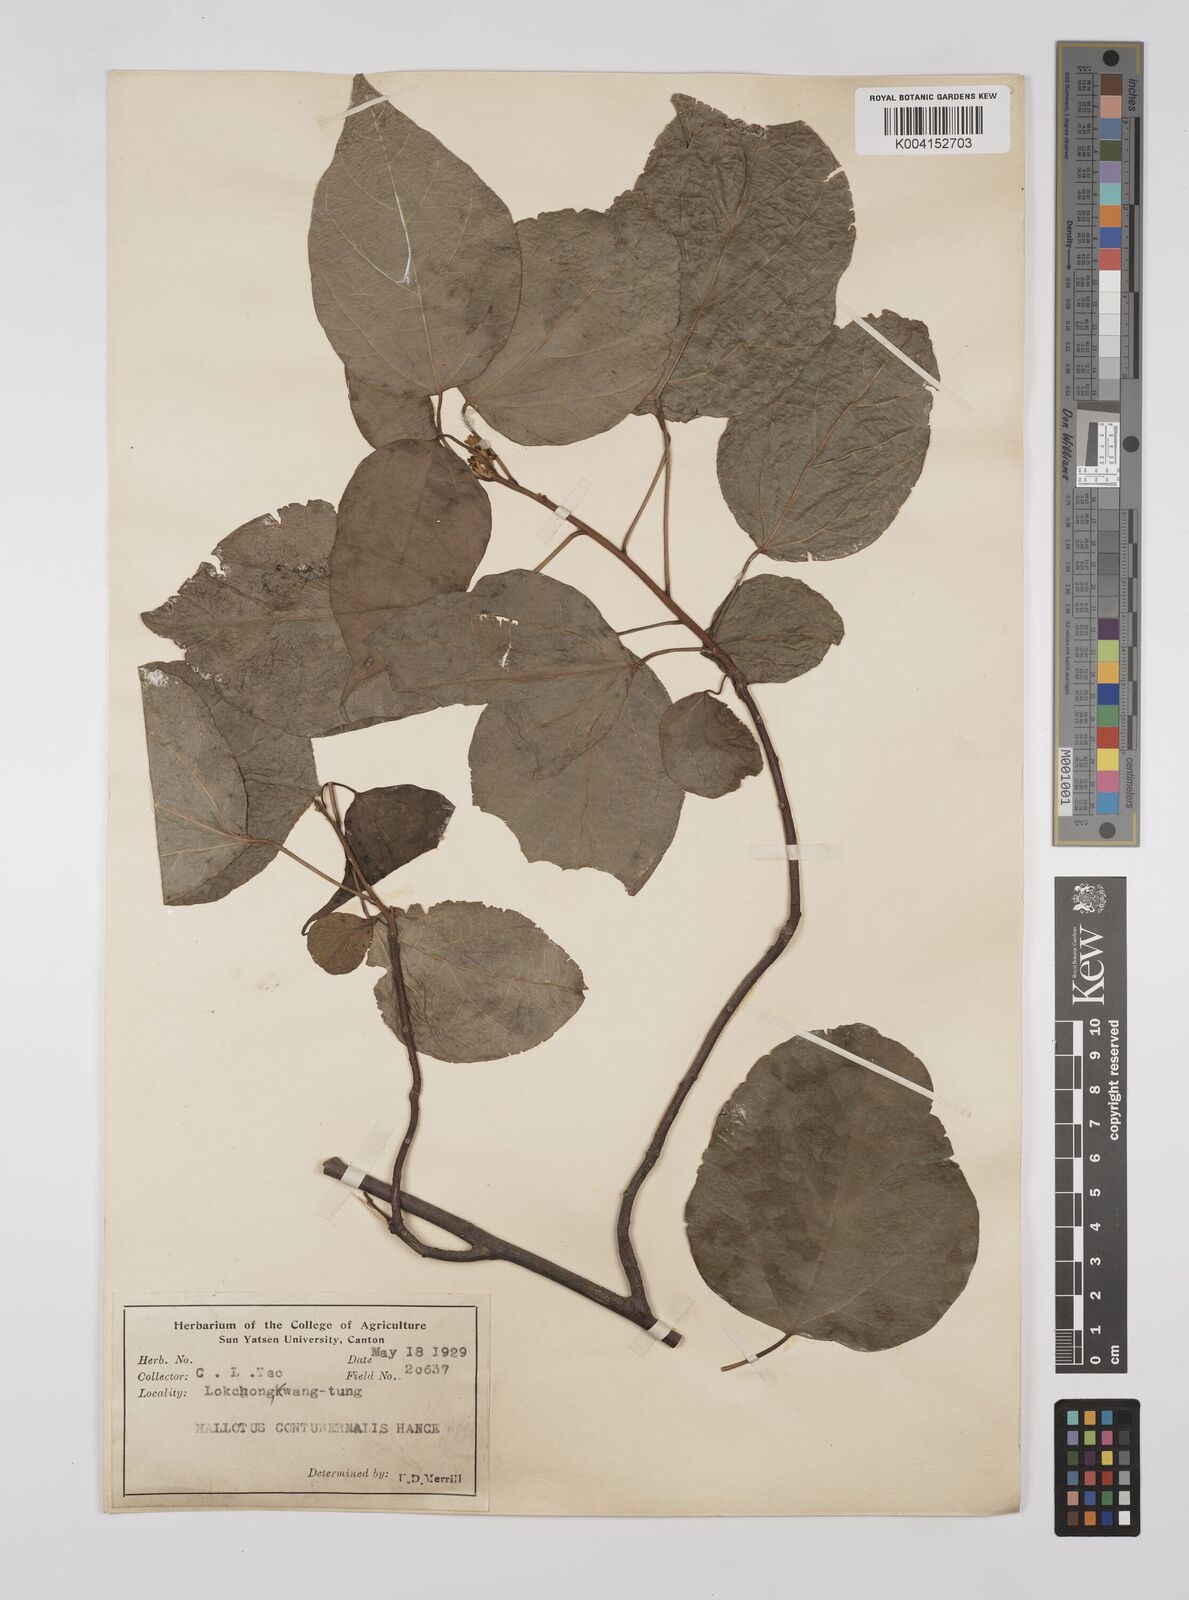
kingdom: Plantae
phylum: Tracheophyta
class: Magnoliopsida
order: Malpighiales
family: Euphorbiaceae
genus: Mallotus
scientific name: Mallotus repandus
